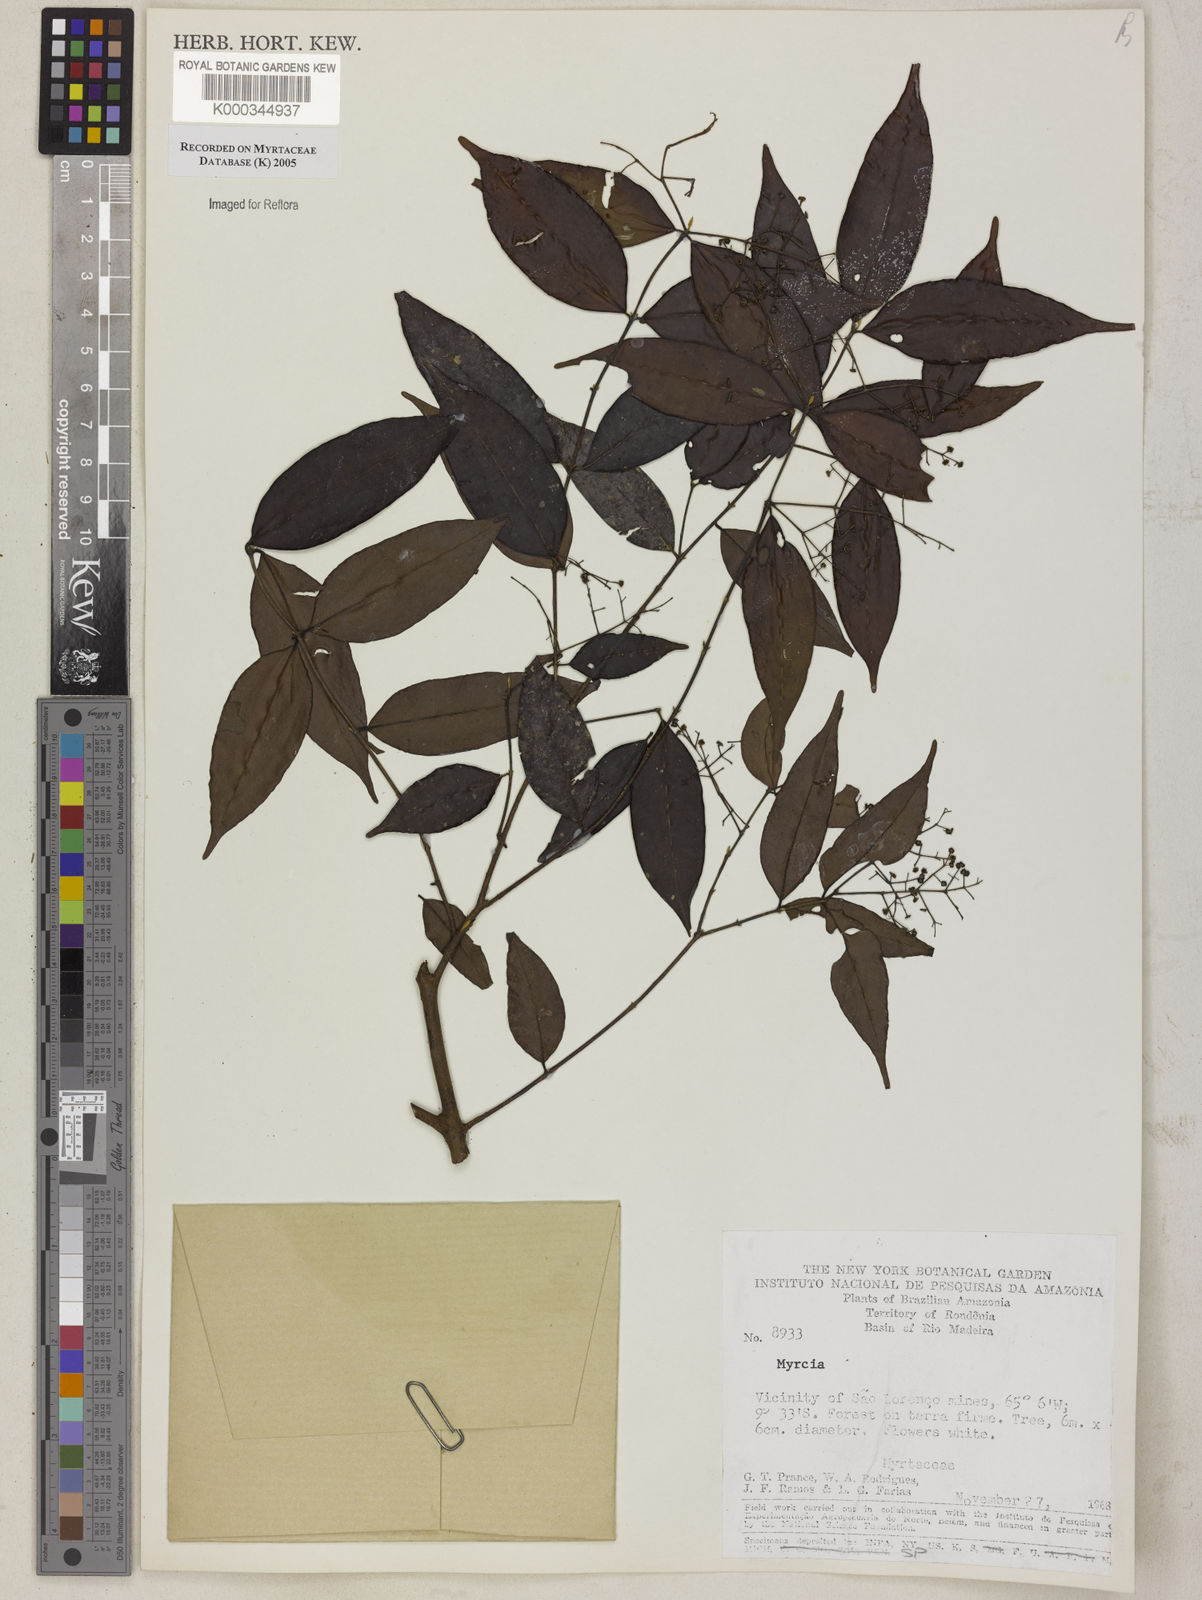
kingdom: Plantae
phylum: Tracheophyta
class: Magnoliopsida
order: Myrtales
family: Myrtaceae
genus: Myrcia
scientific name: Myrcia
